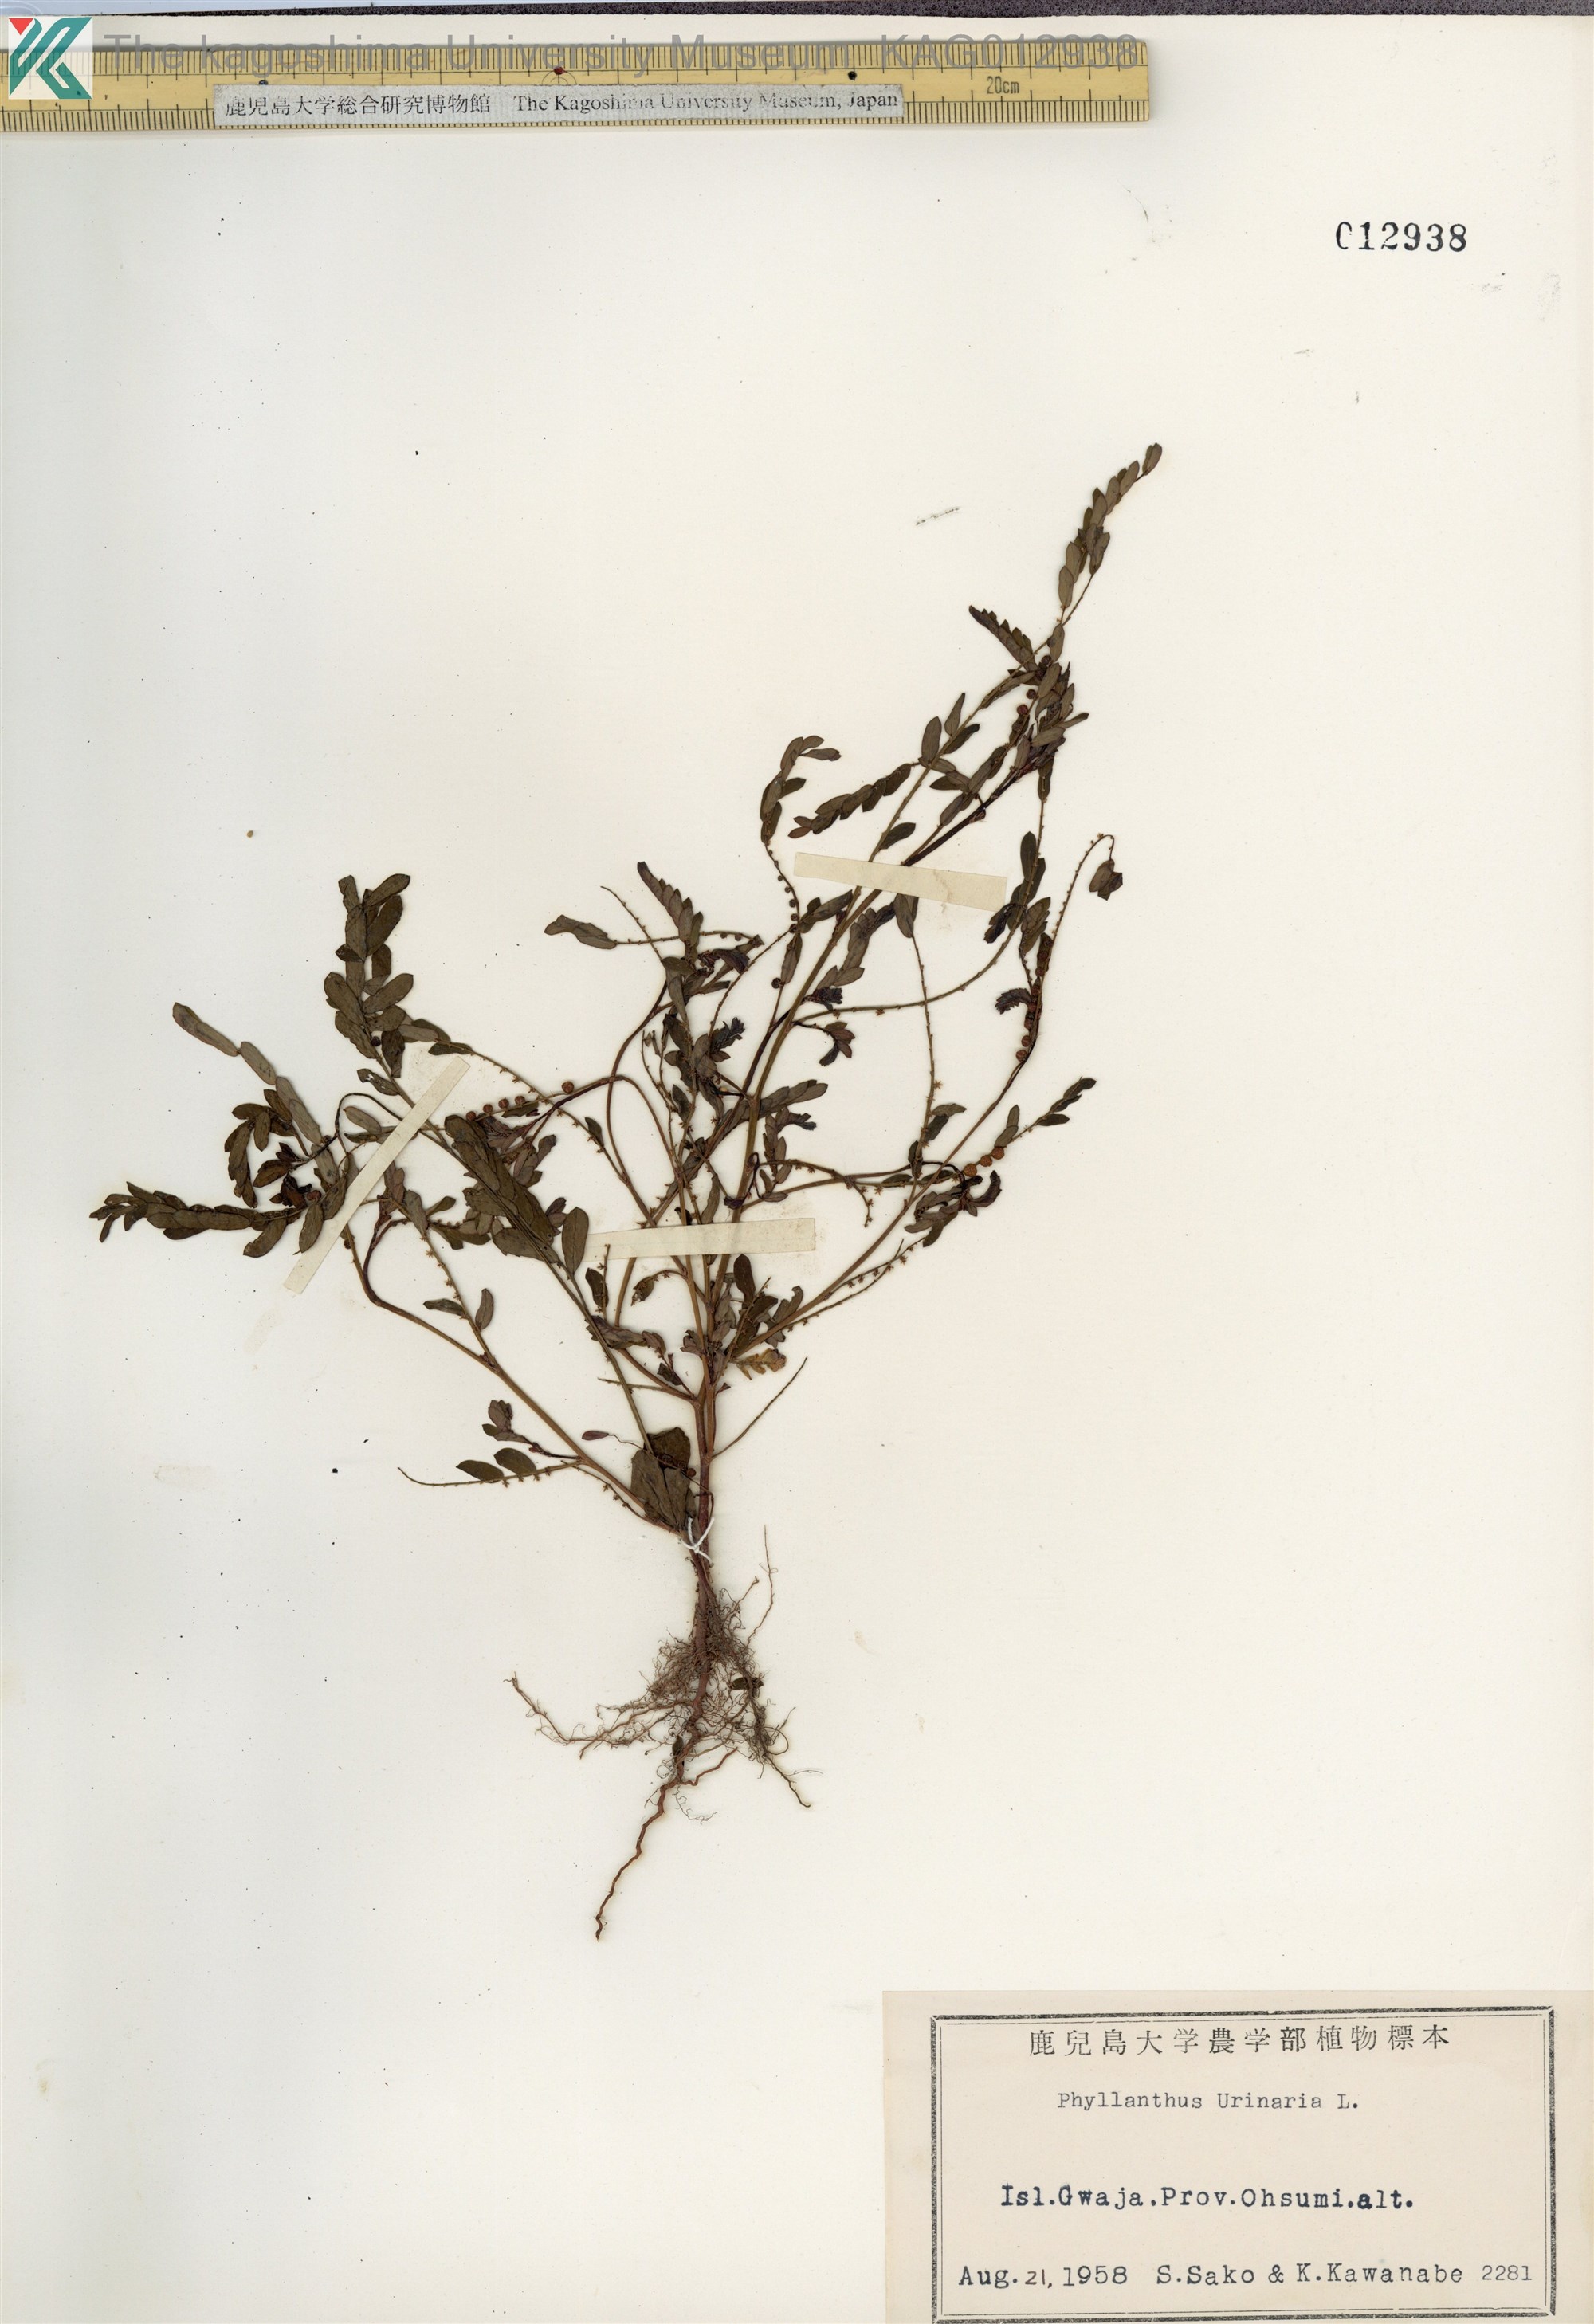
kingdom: Plantae
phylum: Tracheophyta
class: Magnoliopsida
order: Malpighiales
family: Phyllanthaceae
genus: Phyllanthus
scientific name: Phyllanthus urinaria
